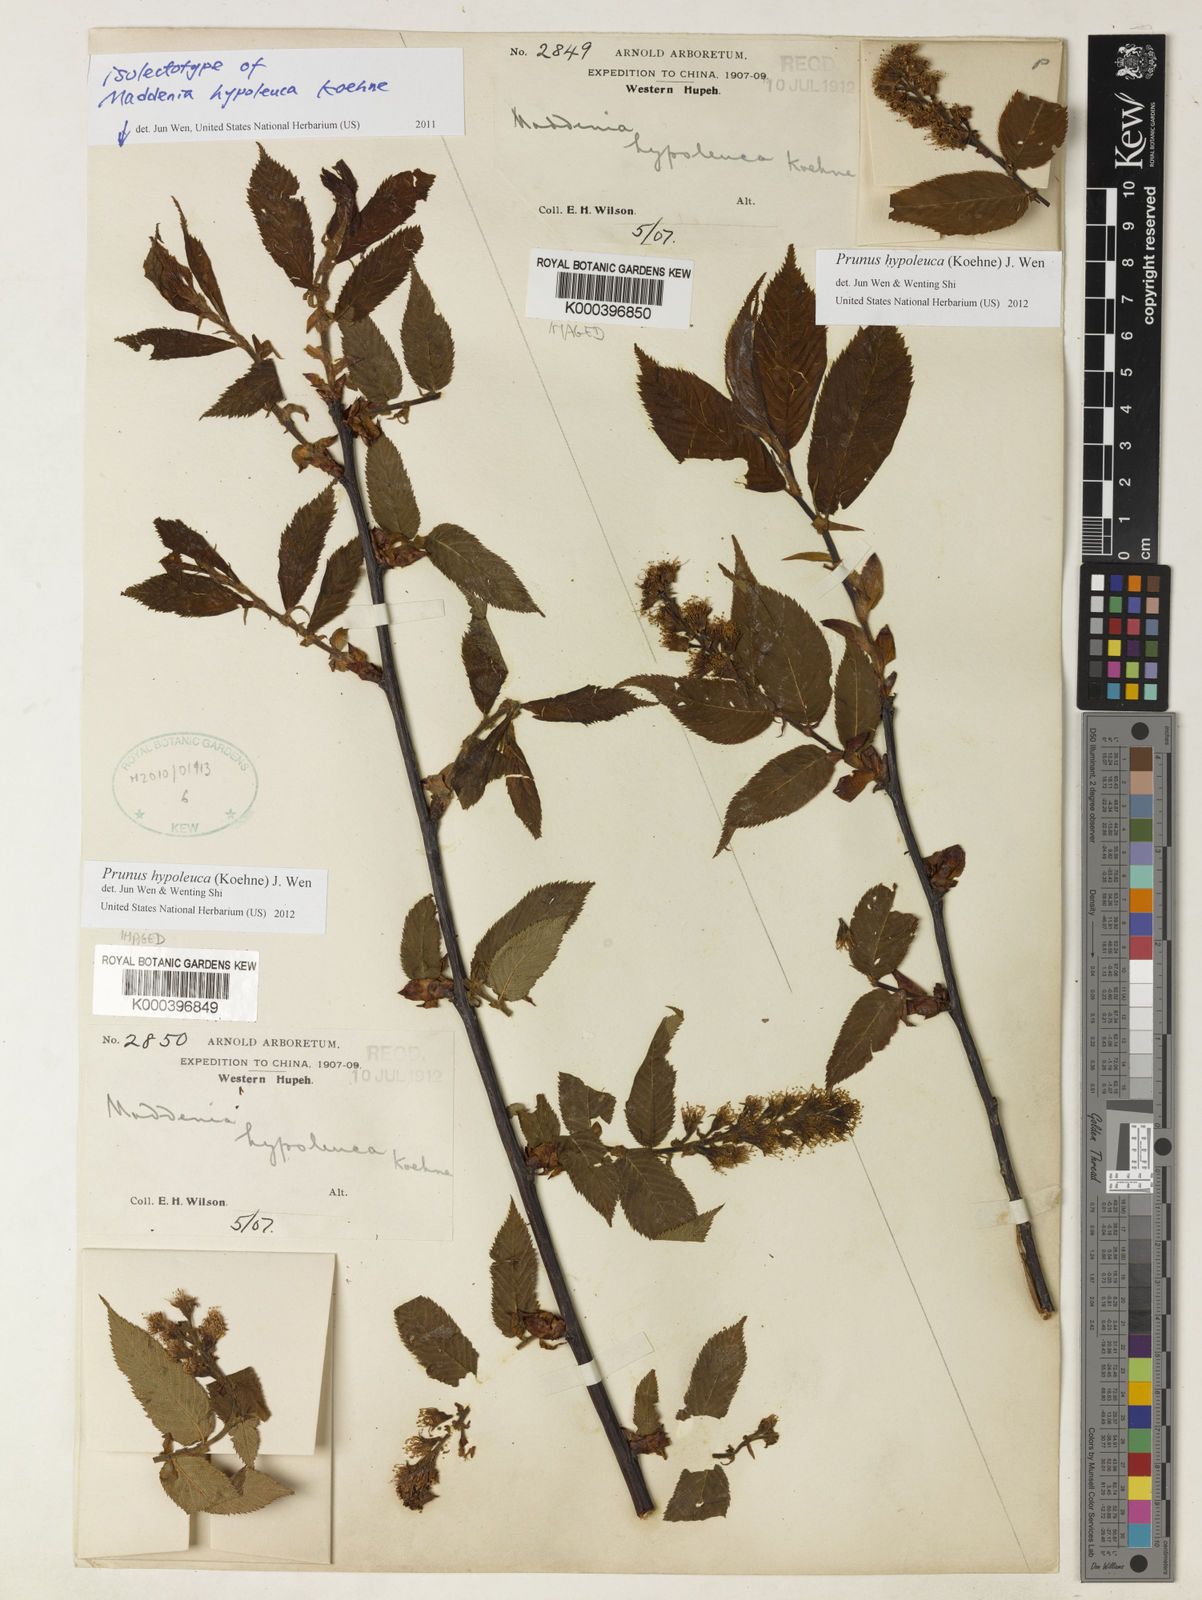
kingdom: Plantae
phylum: Tracheophyta
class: Magnoliopsida
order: Rosales
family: Rosaceae
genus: Prunus
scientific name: Prunus hypoleuca
